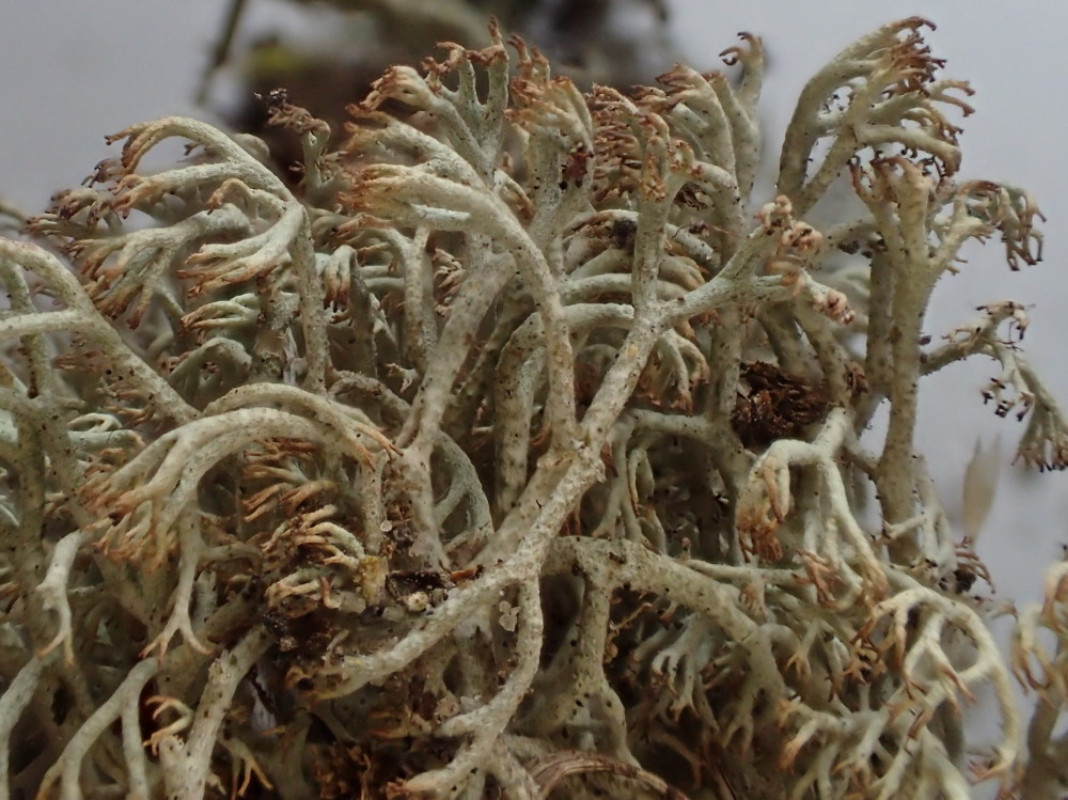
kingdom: Fungi
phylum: Ascomycota
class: Lecanoromycetes
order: Lecanorales
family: Cladoniaceae
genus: Cladonia
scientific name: Cladonia ciliata
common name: spinkel rensdyrlav
